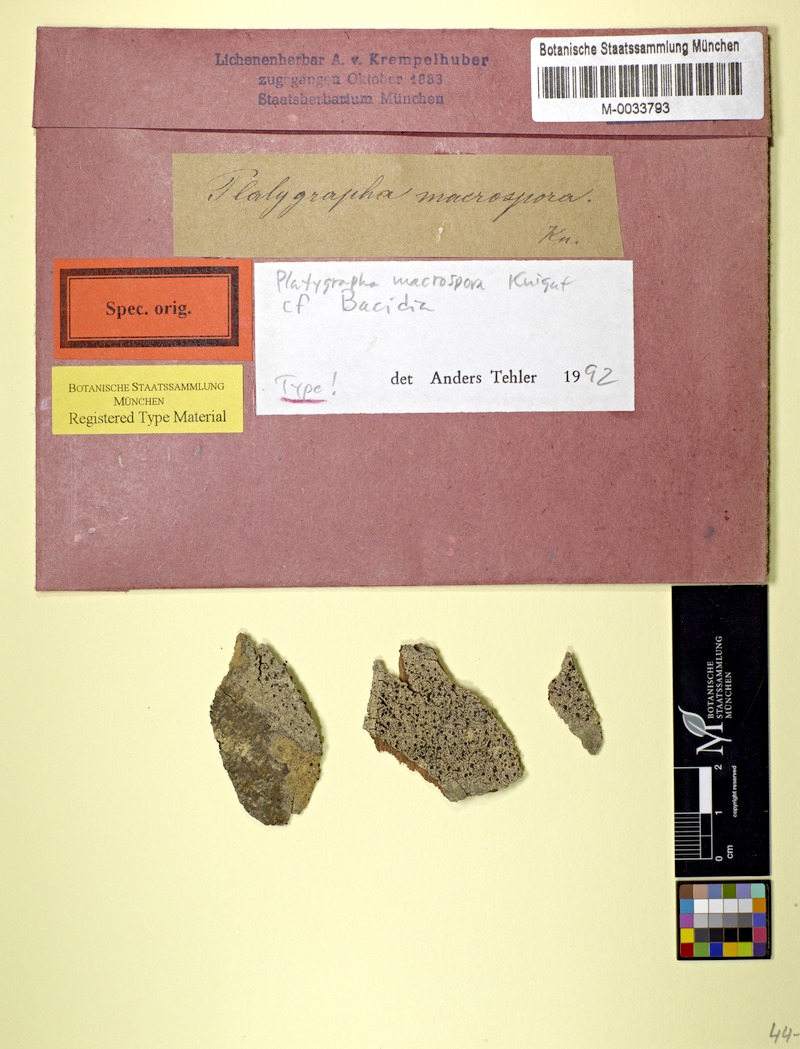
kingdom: Fungi
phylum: Ascomycota
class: Lecanoromycetes
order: Lecanorales
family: Ramalinaceae
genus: Bacidia
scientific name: Bacidia macrospora
